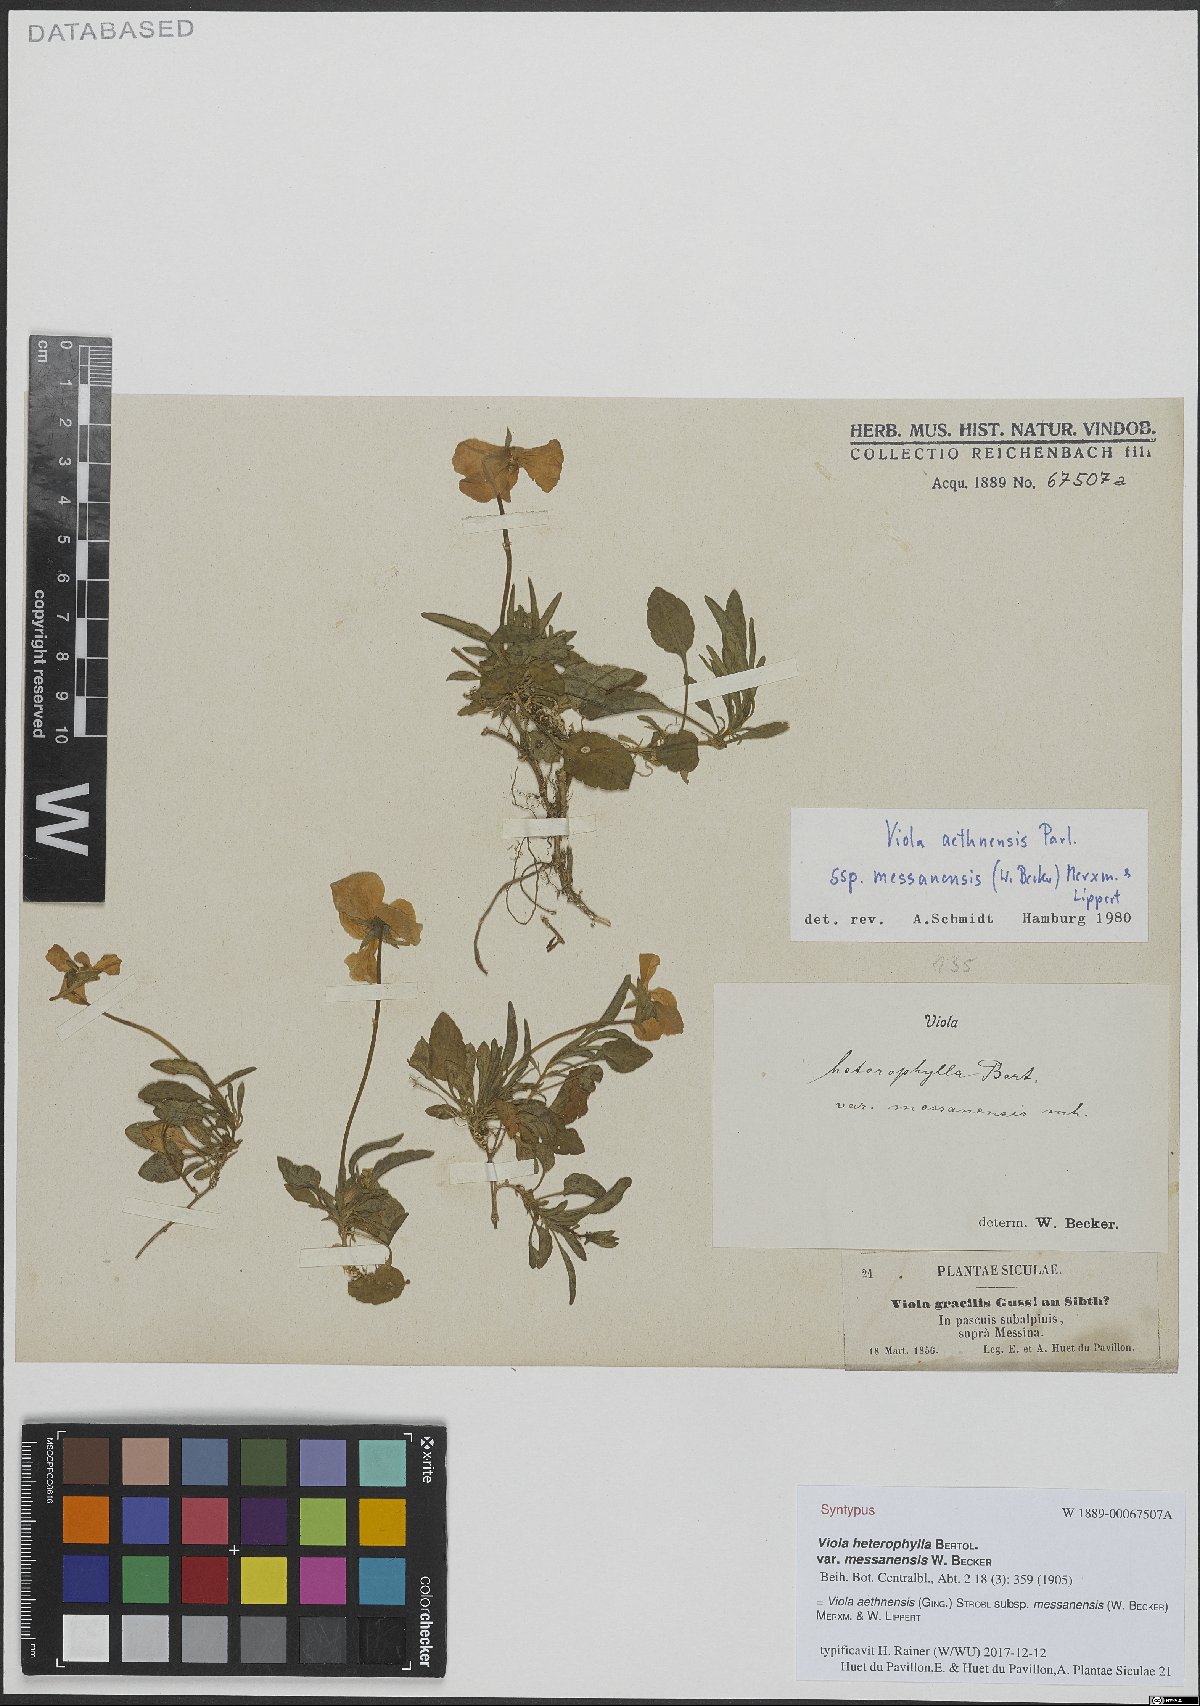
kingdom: Plantae
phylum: Tracheophyta
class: Magnoliopsida
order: Malpighiales
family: Violaceae
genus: Viola
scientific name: Viola aethnensis
